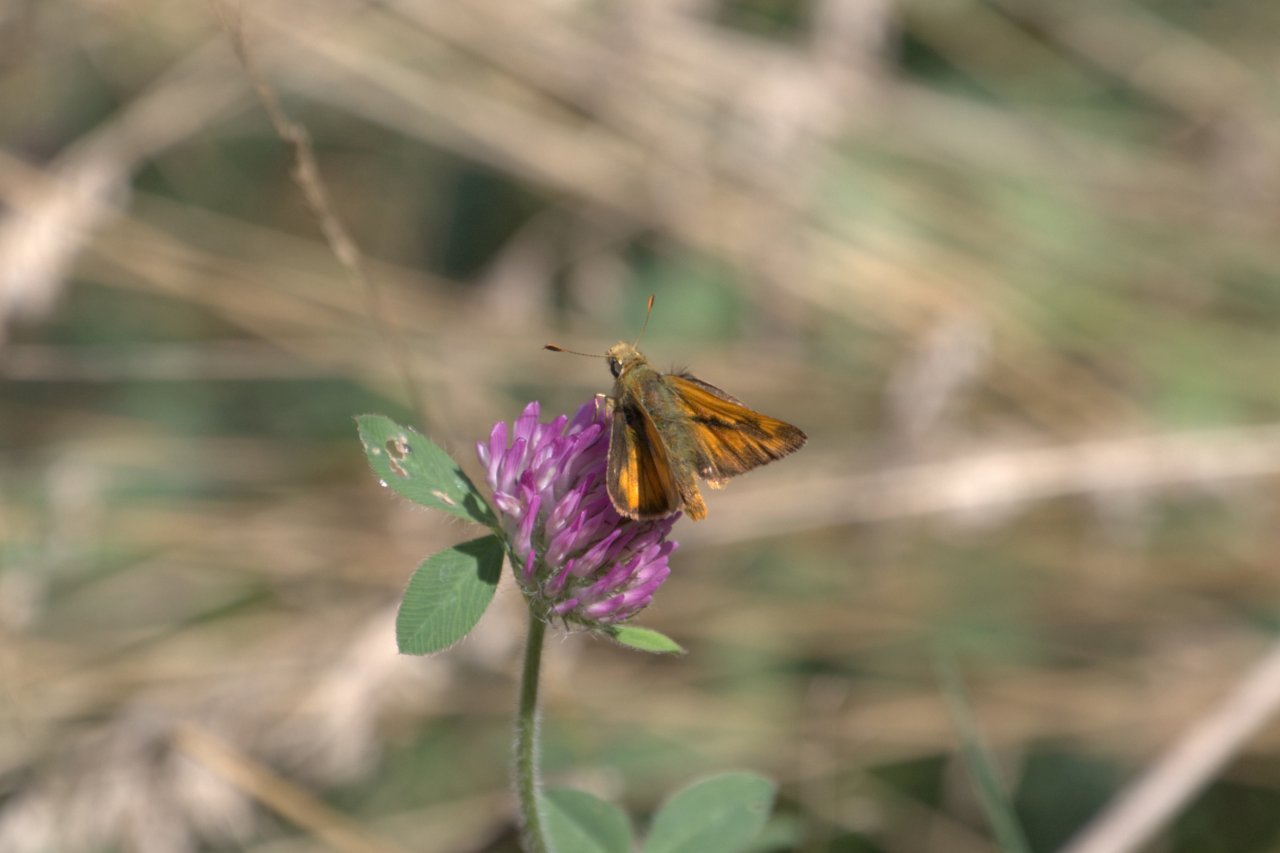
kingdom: Animalia
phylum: Arthropoda
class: Insecta
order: Lepidoptera
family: Hesperiidae
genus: Ochlodes
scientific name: Ochlodes sylvanoides
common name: Woodland Skipper
